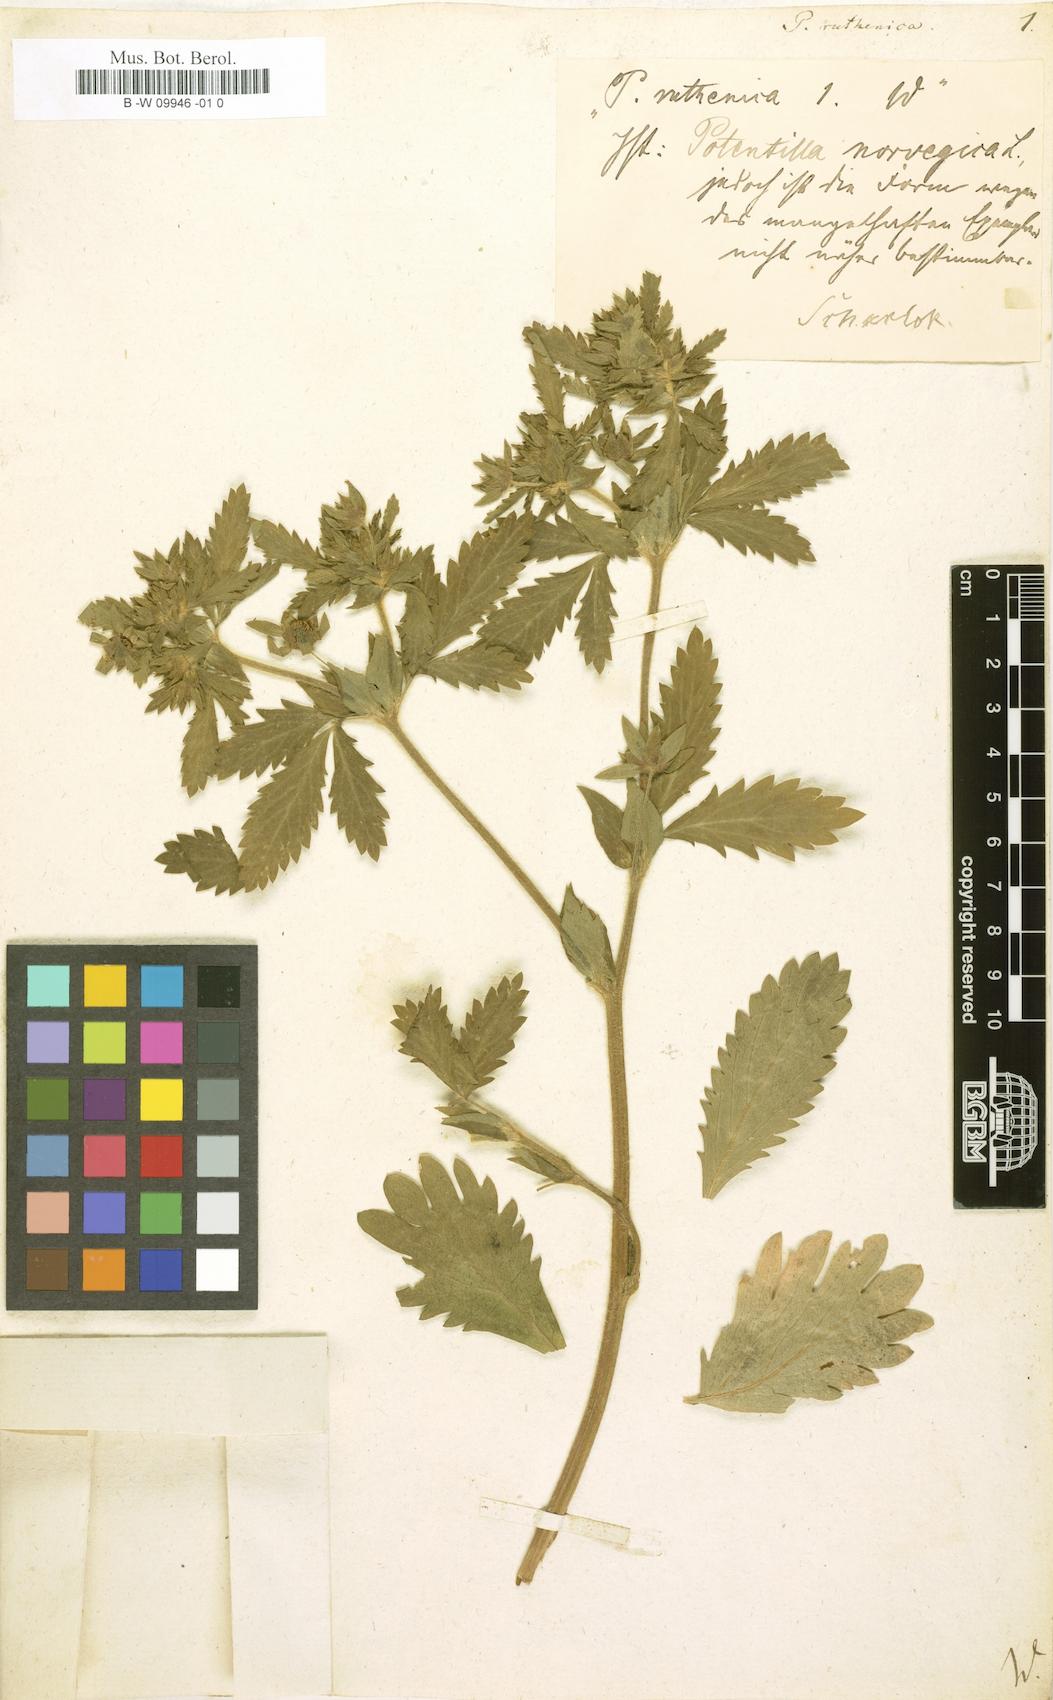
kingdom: Plantae
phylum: Tracheophyta
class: Magnoliopsida
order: Rosales
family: Rosaceae
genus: Potentilla
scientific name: Potentilla
